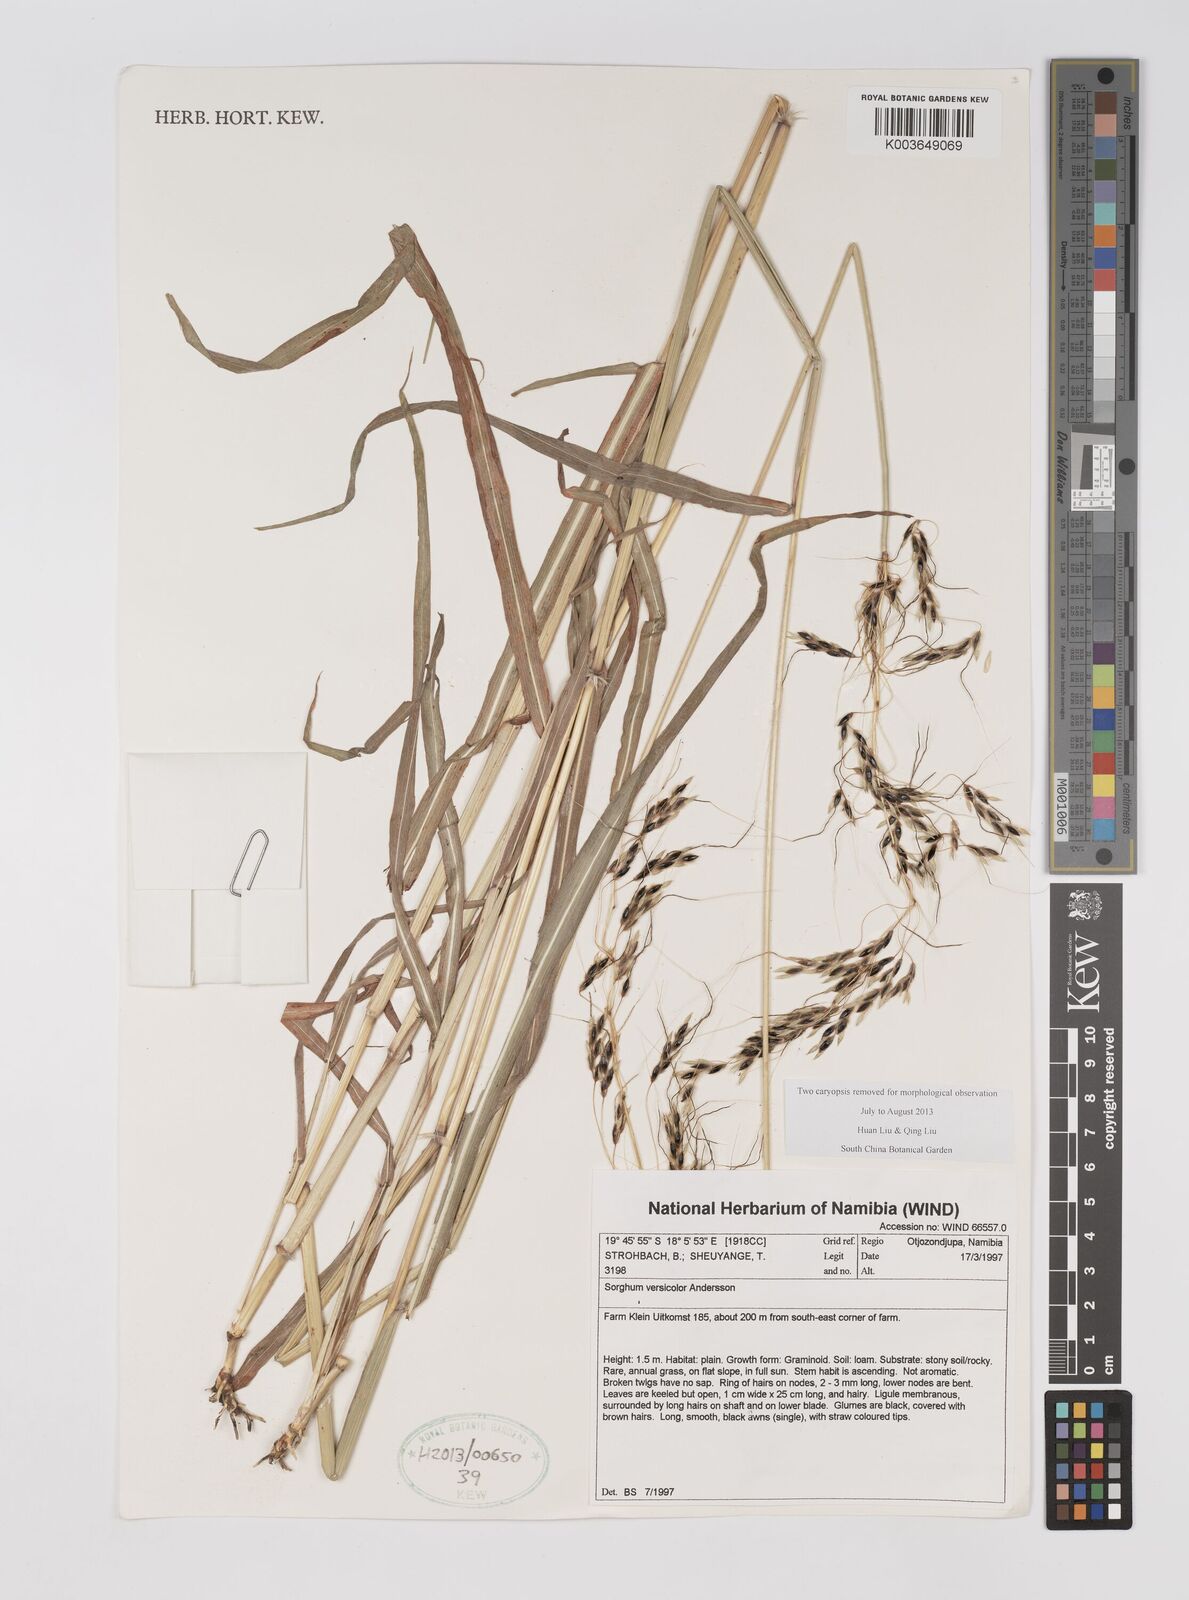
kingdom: Plantae
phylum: Tracheophyta
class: Liliopsida
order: Poales
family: Poaceae
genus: Sarga
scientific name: Sarga versicolor
